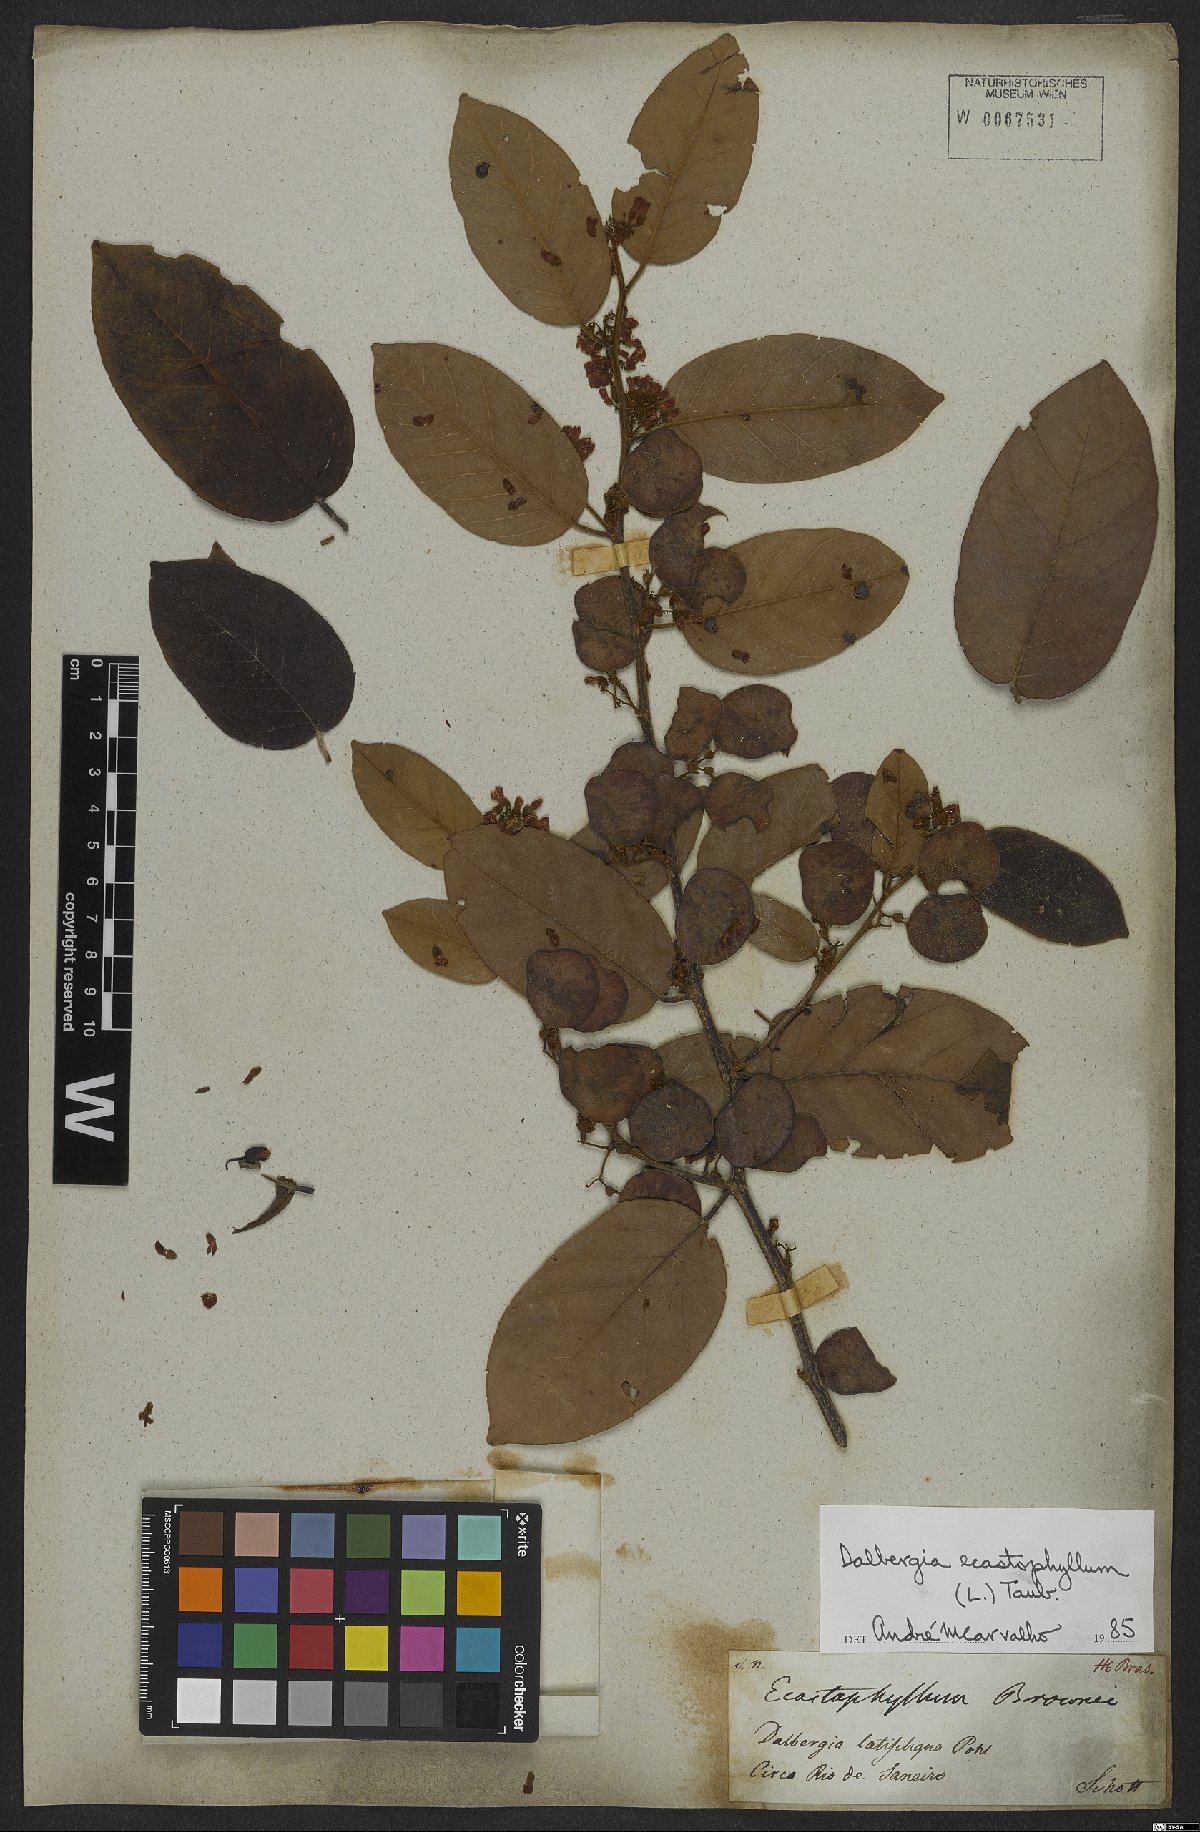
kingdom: Plantae
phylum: Tracheophyta
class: Magnoliopsida
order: Fabales
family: Fabaceae
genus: Dalbergia
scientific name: Dalbergia ecastaphyllum
